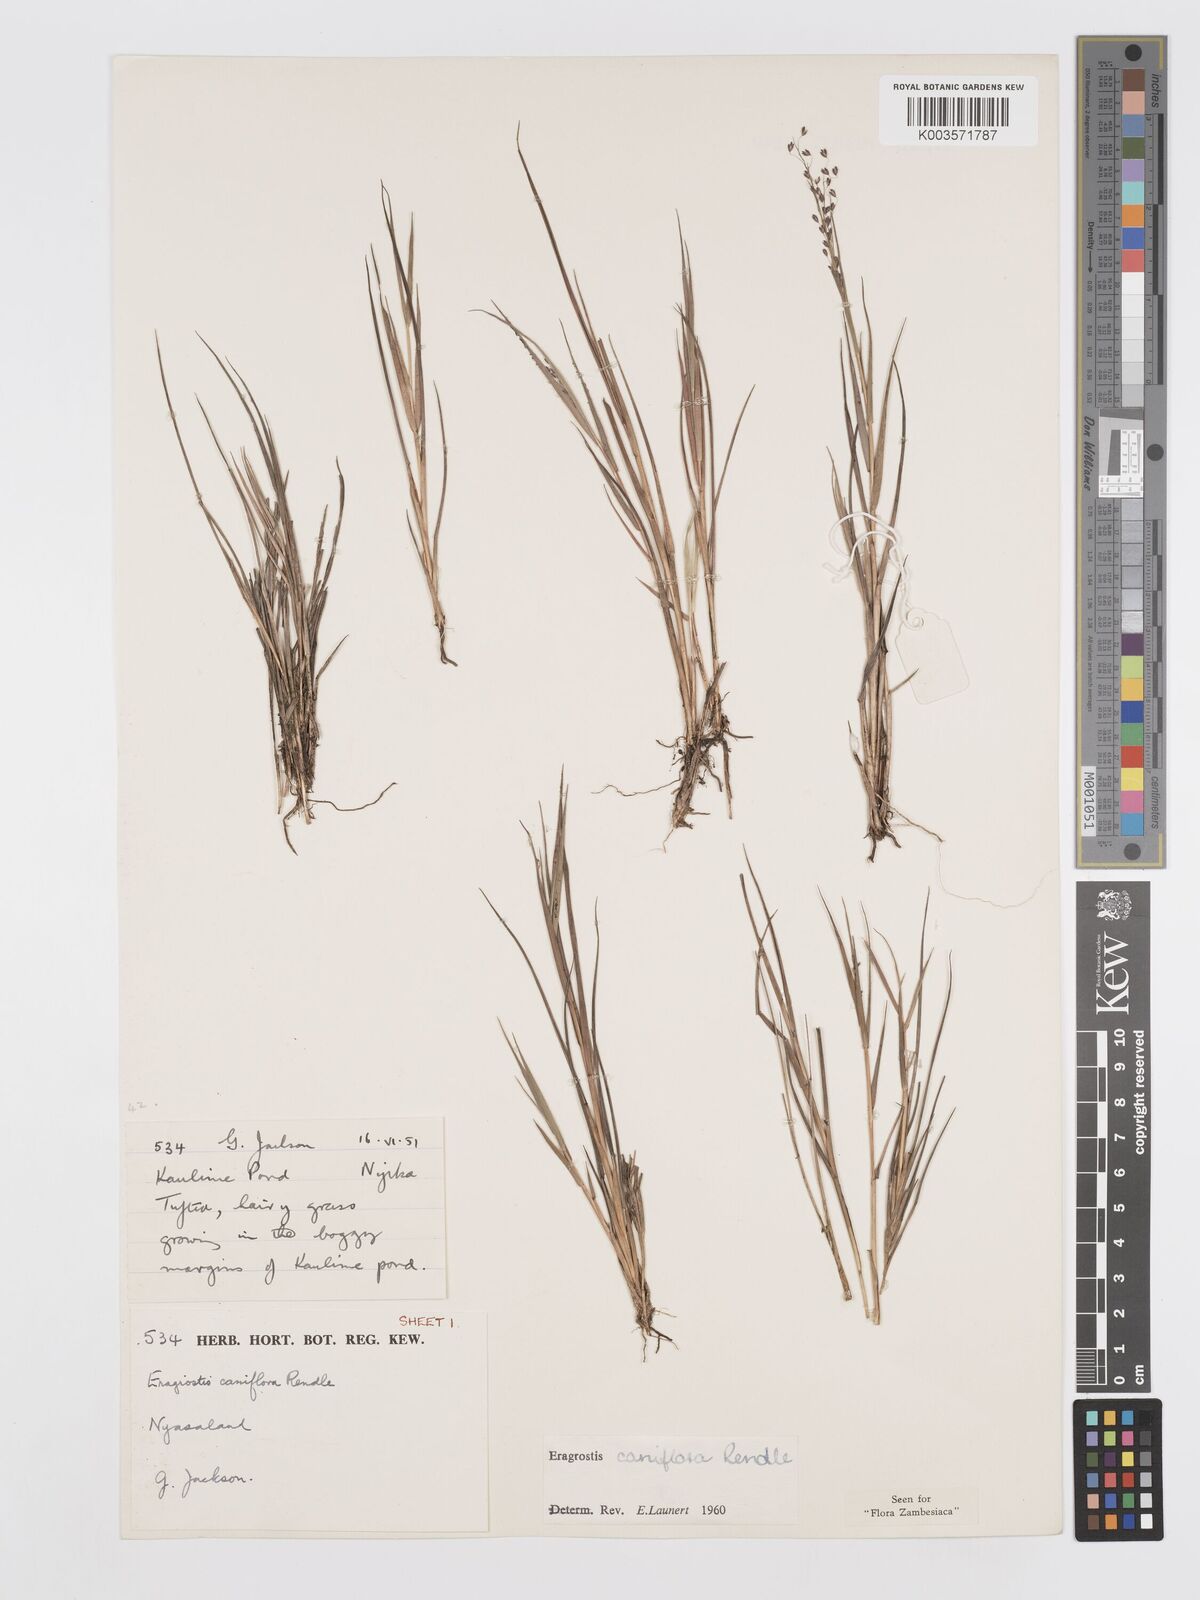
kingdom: Plantae
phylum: Tracheophyta
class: Liliopsida
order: Poales
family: Poaceae
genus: Eragrostis
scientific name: Eragrostis caniflora
